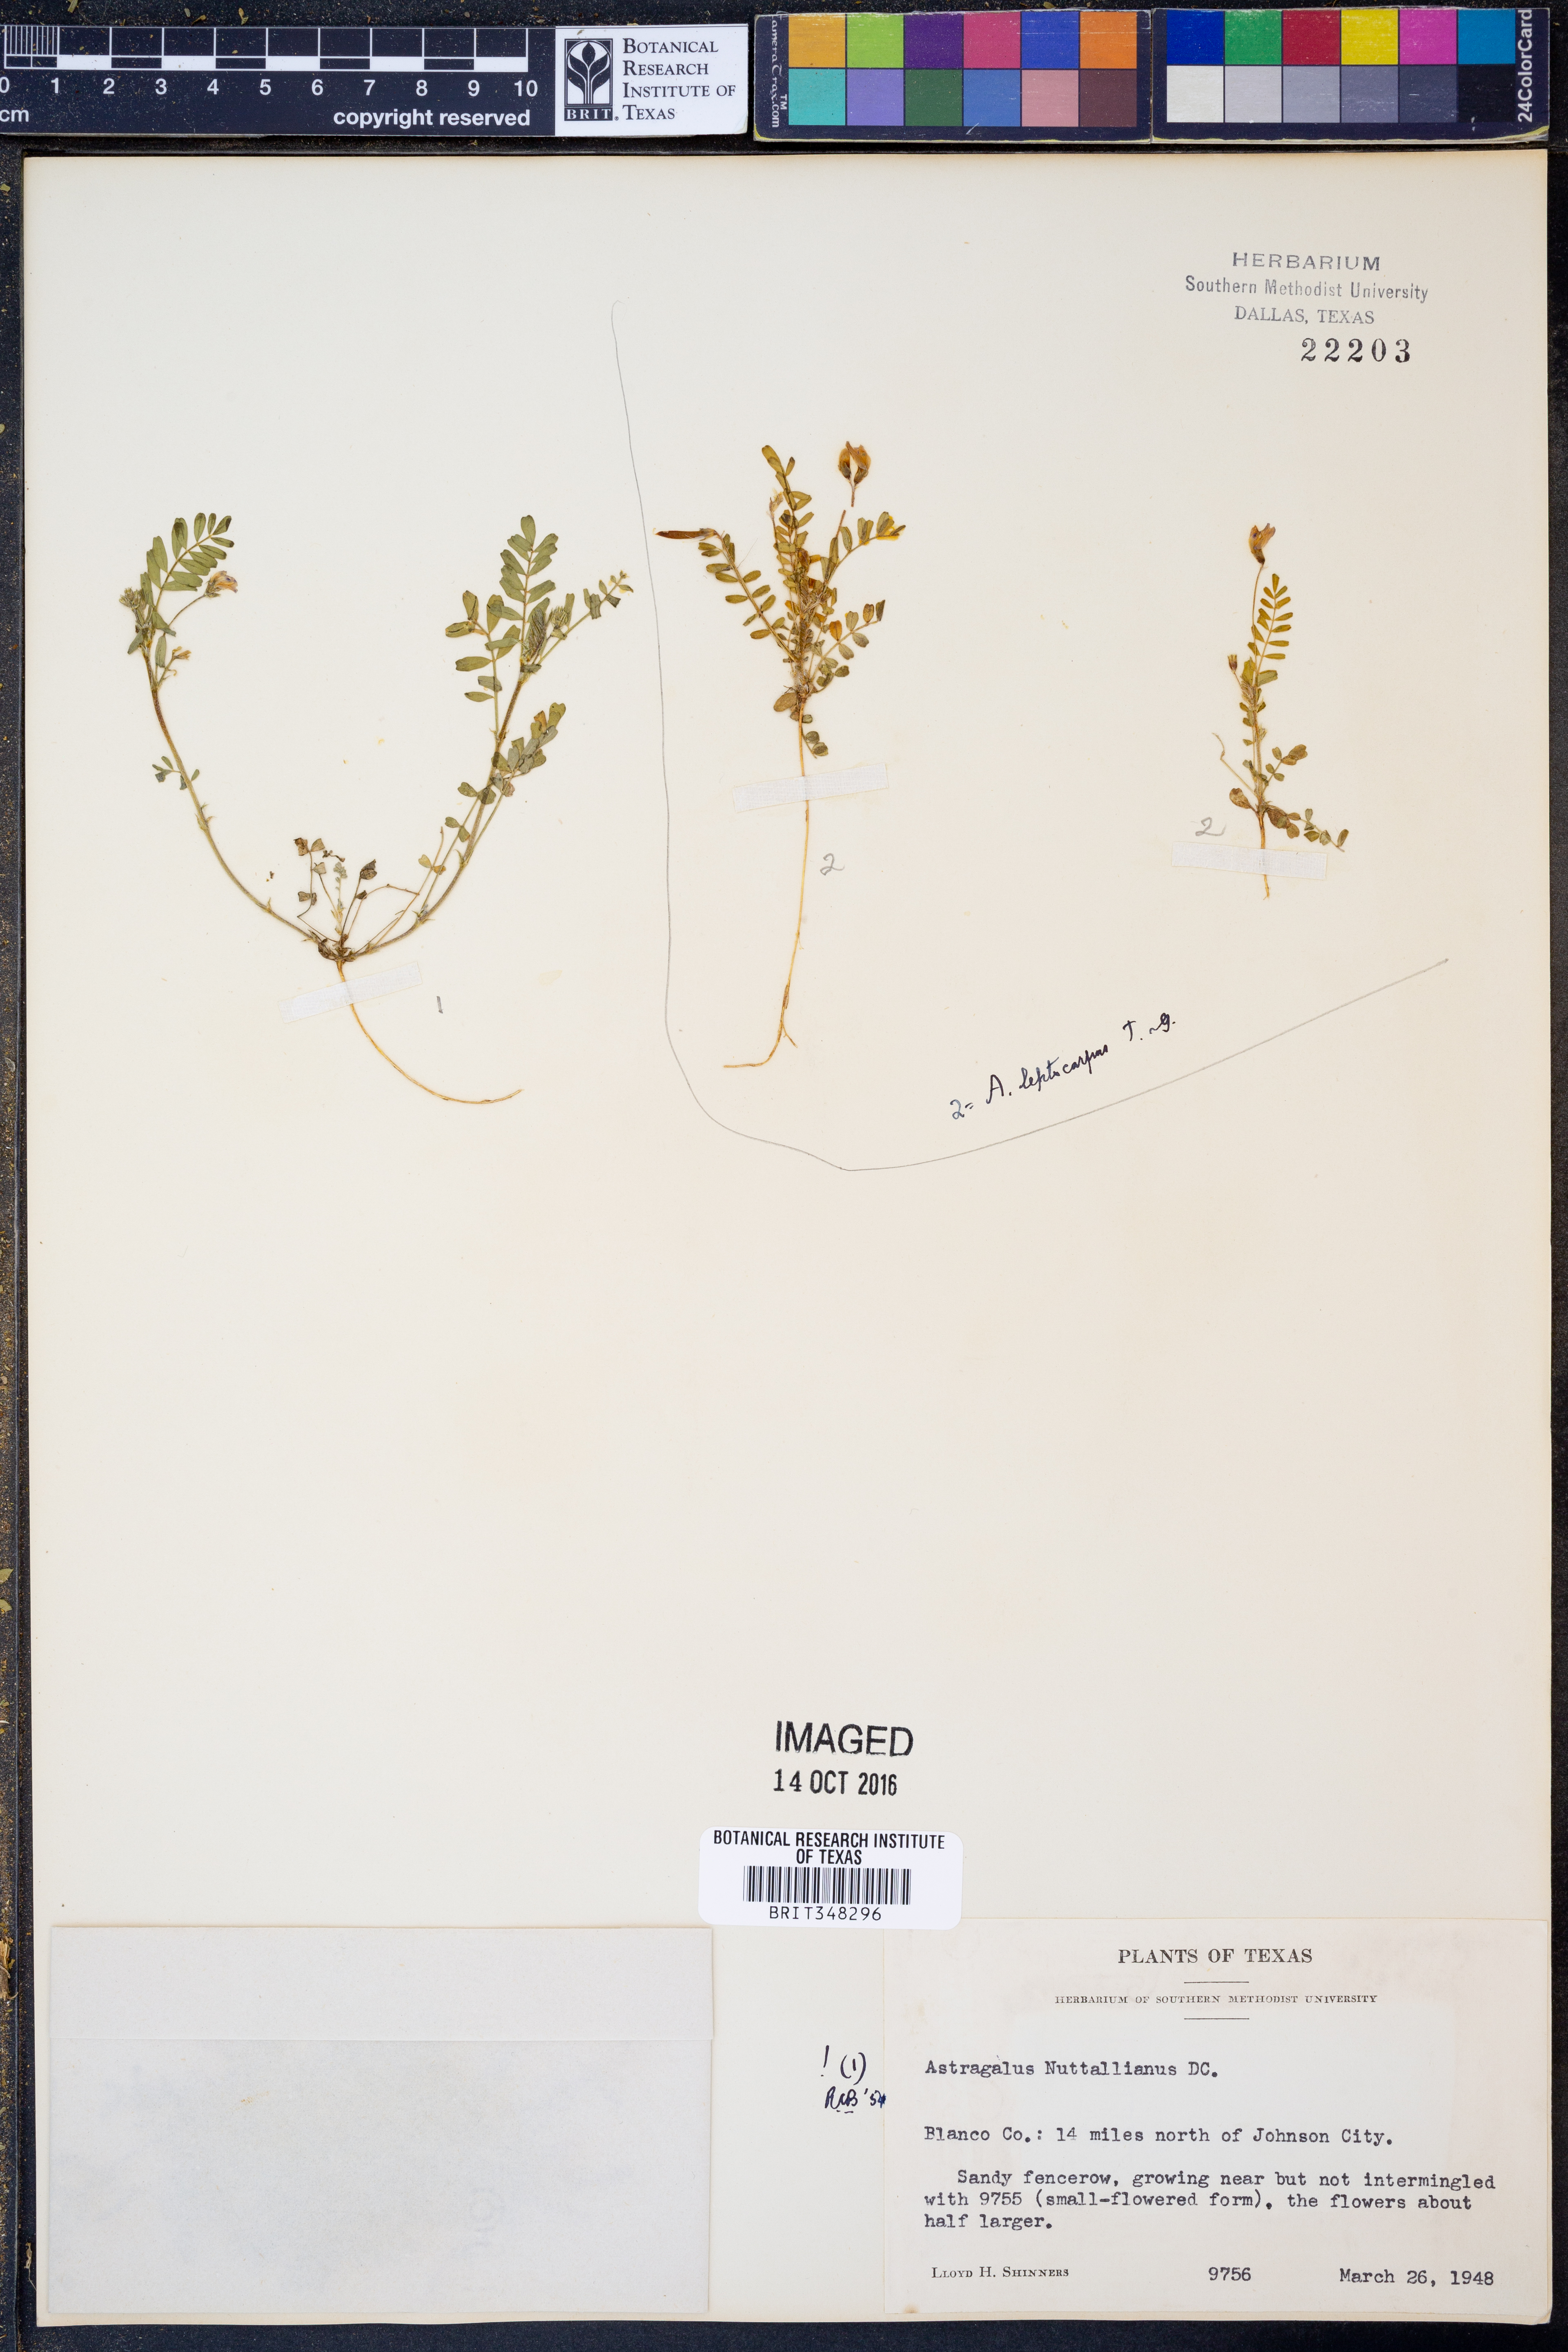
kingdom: Plantae
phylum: Tracheophyta
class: Magnoliopsida
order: Fabales
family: Fabaceae
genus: Astragalus
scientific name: Astragalus nuttallianus
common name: Smallflowered milkvetch
